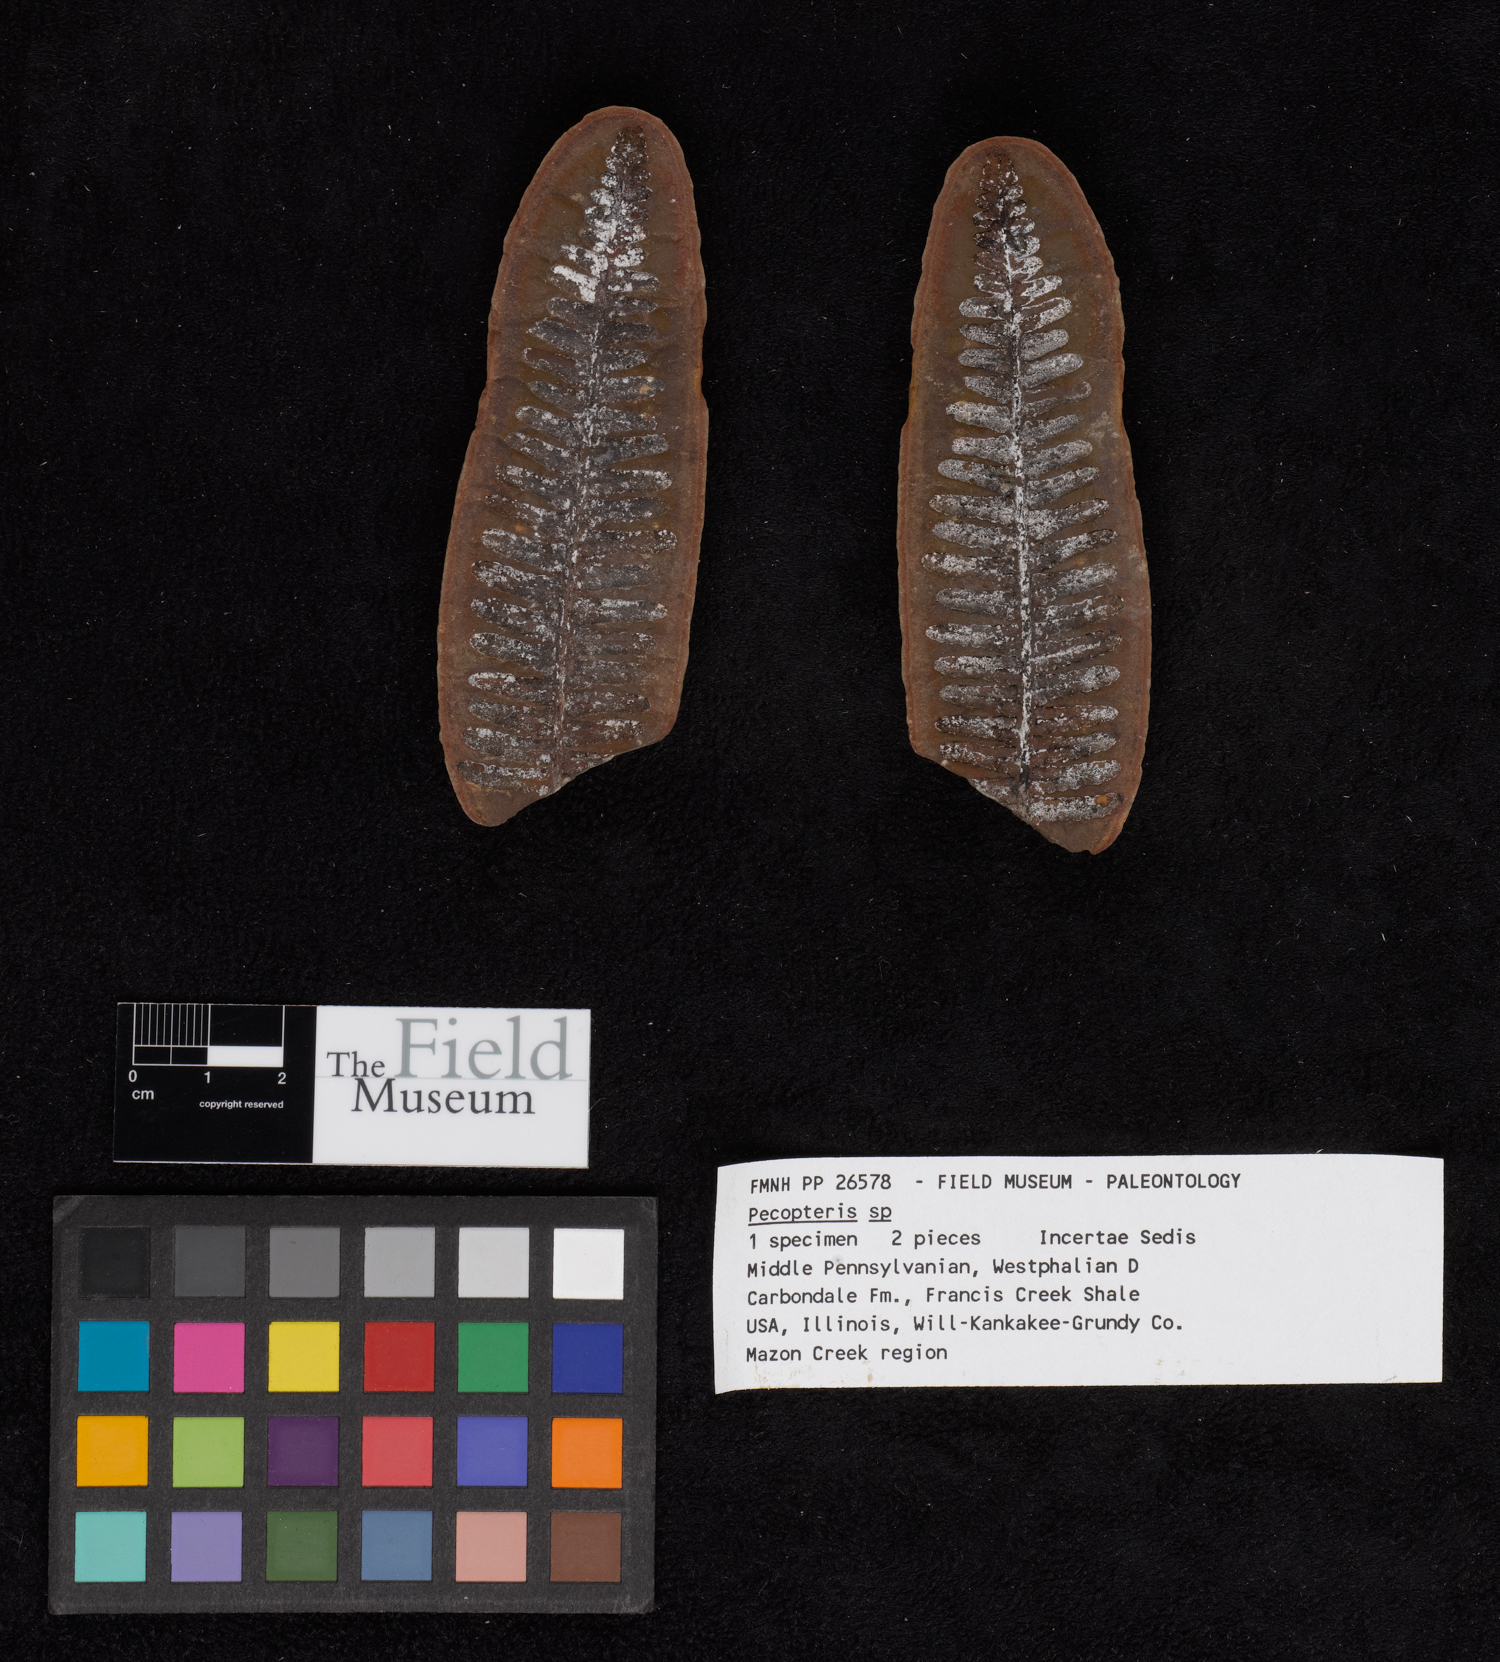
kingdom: Plantae
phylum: Tracheophyta
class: Polypodiopsida
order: Marattiales
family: Asterothecaceae
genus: Pecopteris
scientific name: Pecopteris
